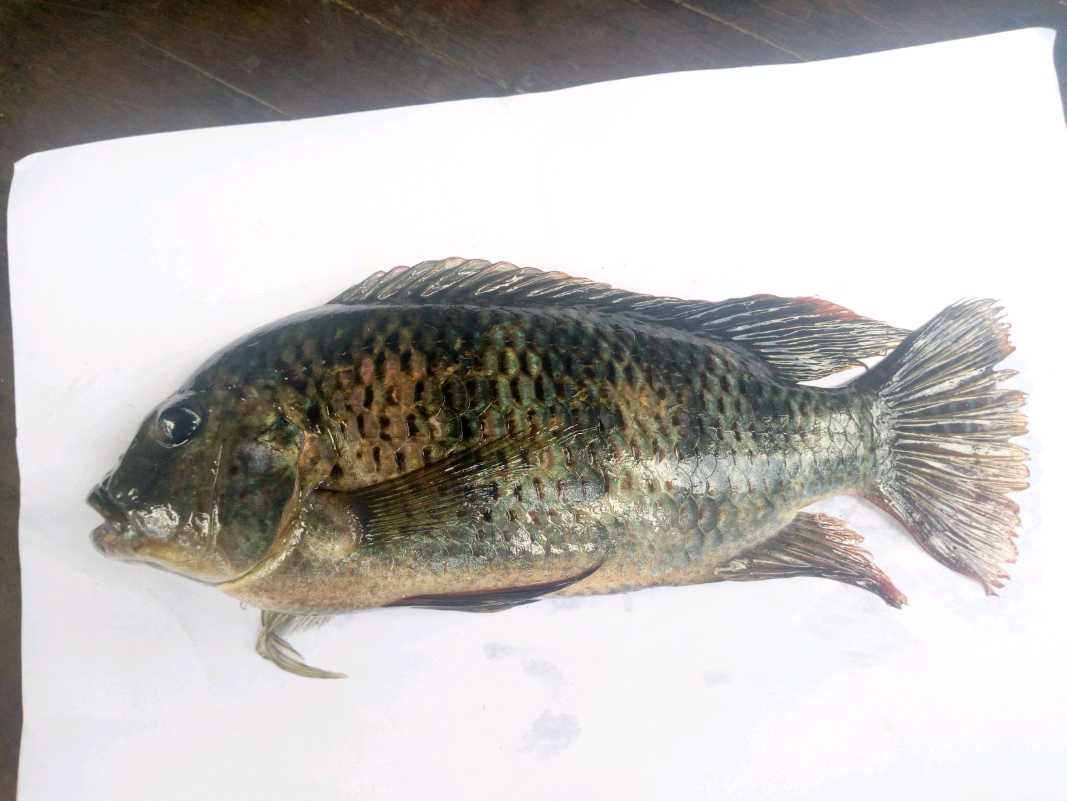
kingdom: Animalia
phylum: Chordata
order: Perciformes
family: Cichlidae
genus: Coptodon
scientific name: Coptodon rendalli
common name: Redbreast tilapia
